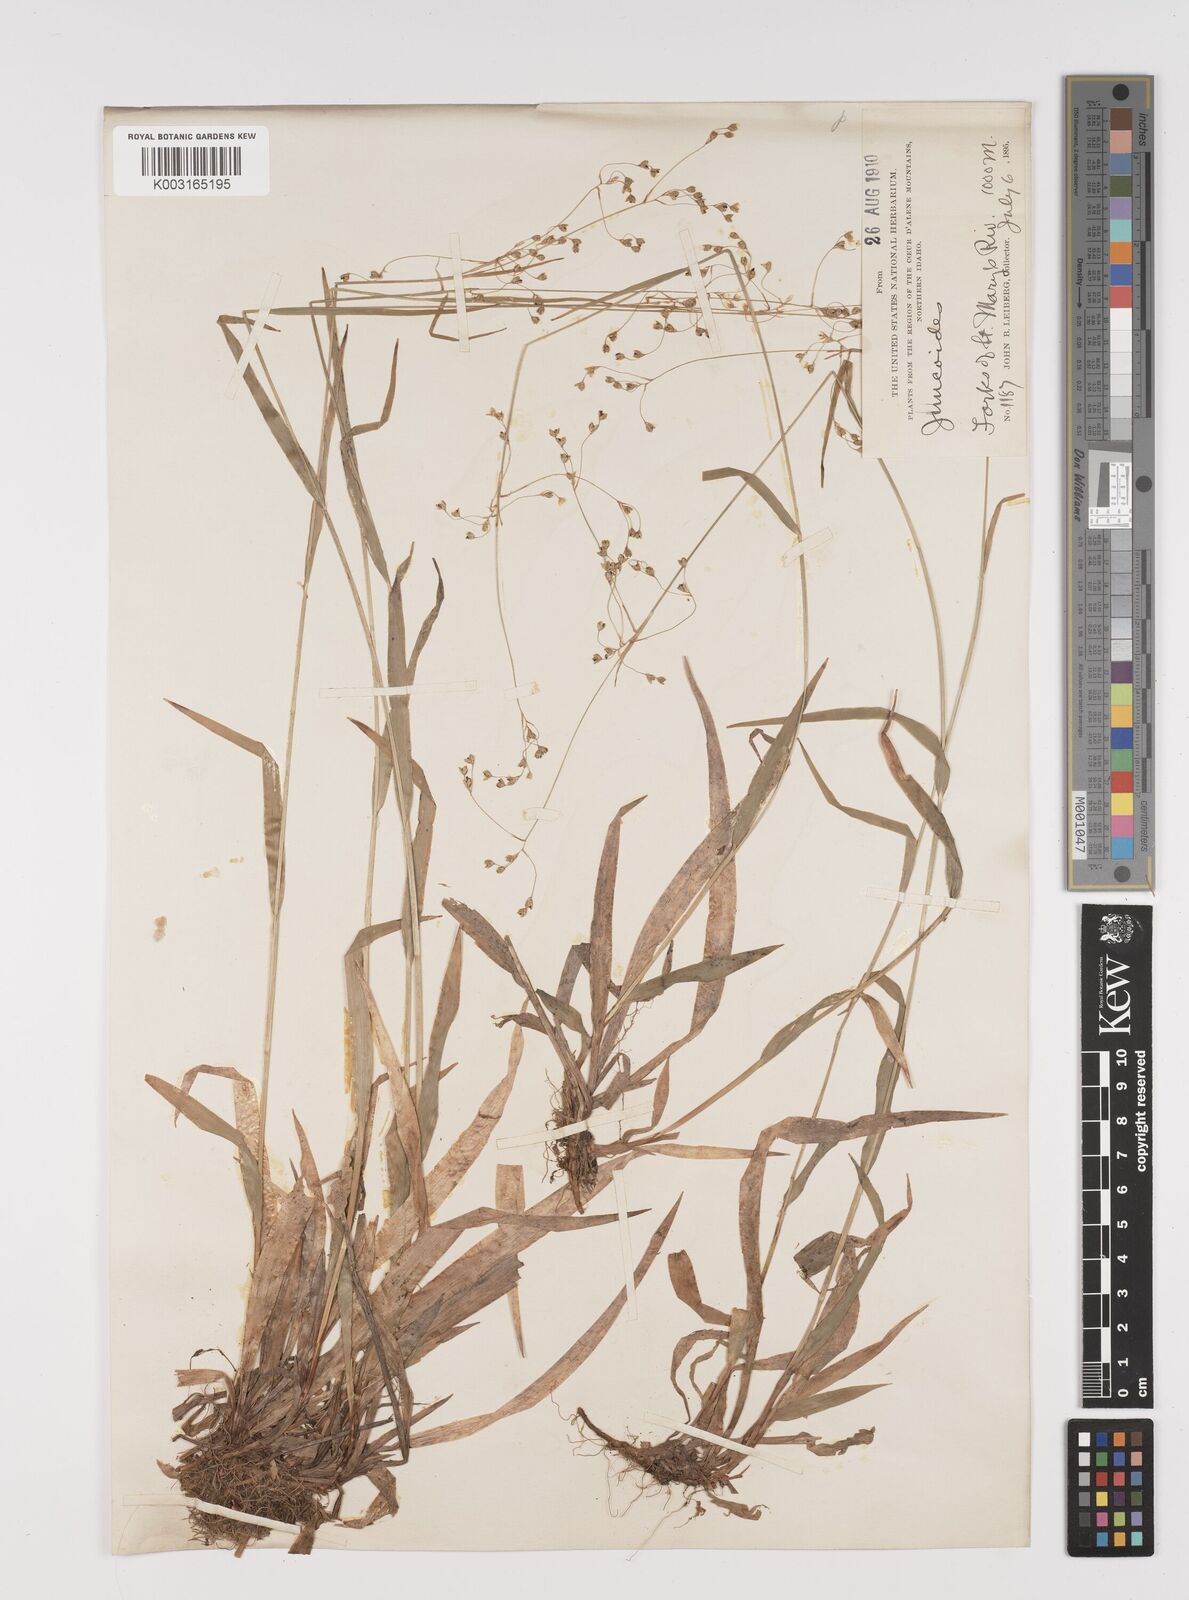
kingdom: Plantae
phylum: Tracheophyta
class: Liliopsida
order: Poales
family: Juncaceae
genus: Luzula
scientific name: Luzula
